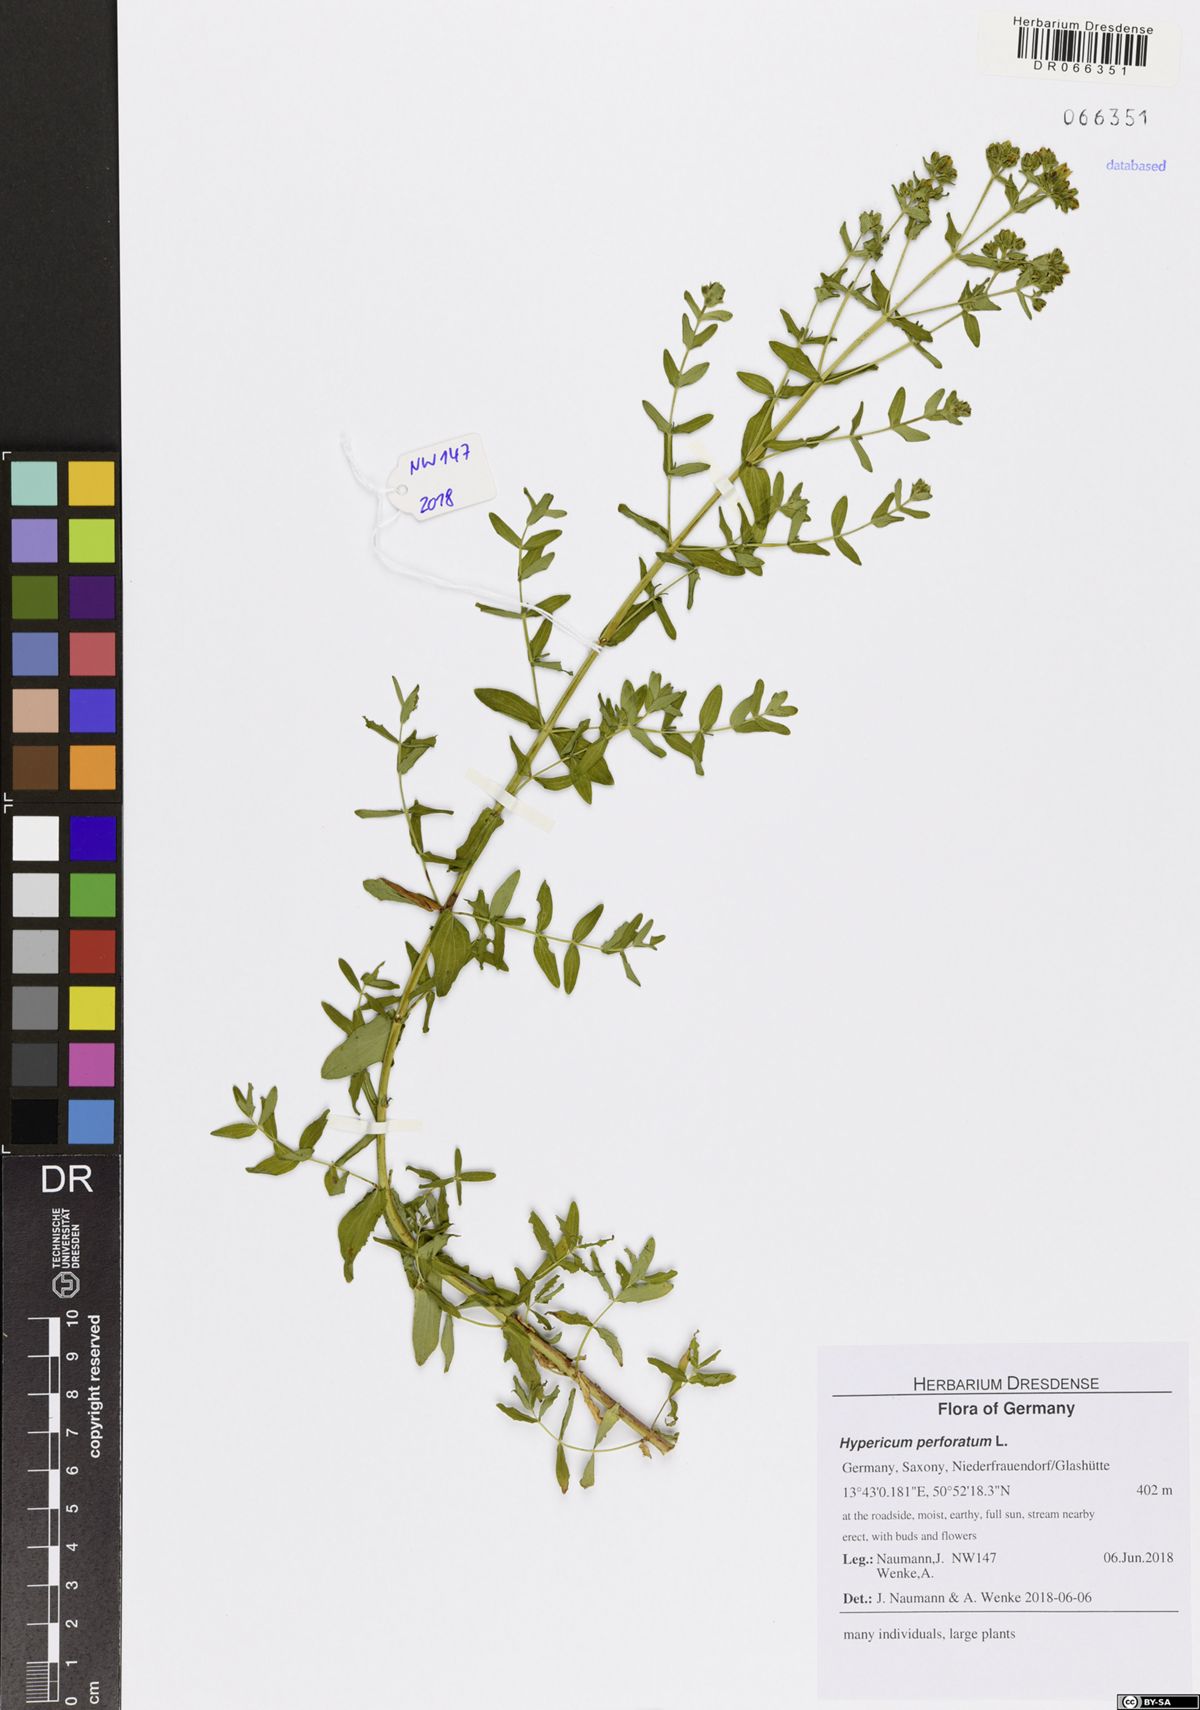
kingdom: Plantae
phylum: Tracheophyta
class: Magnoliopsida
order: Malpighiales
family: Hypericaceae
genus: Hypericum
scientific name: Hypericum perforatum
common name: Common st. johnswort
